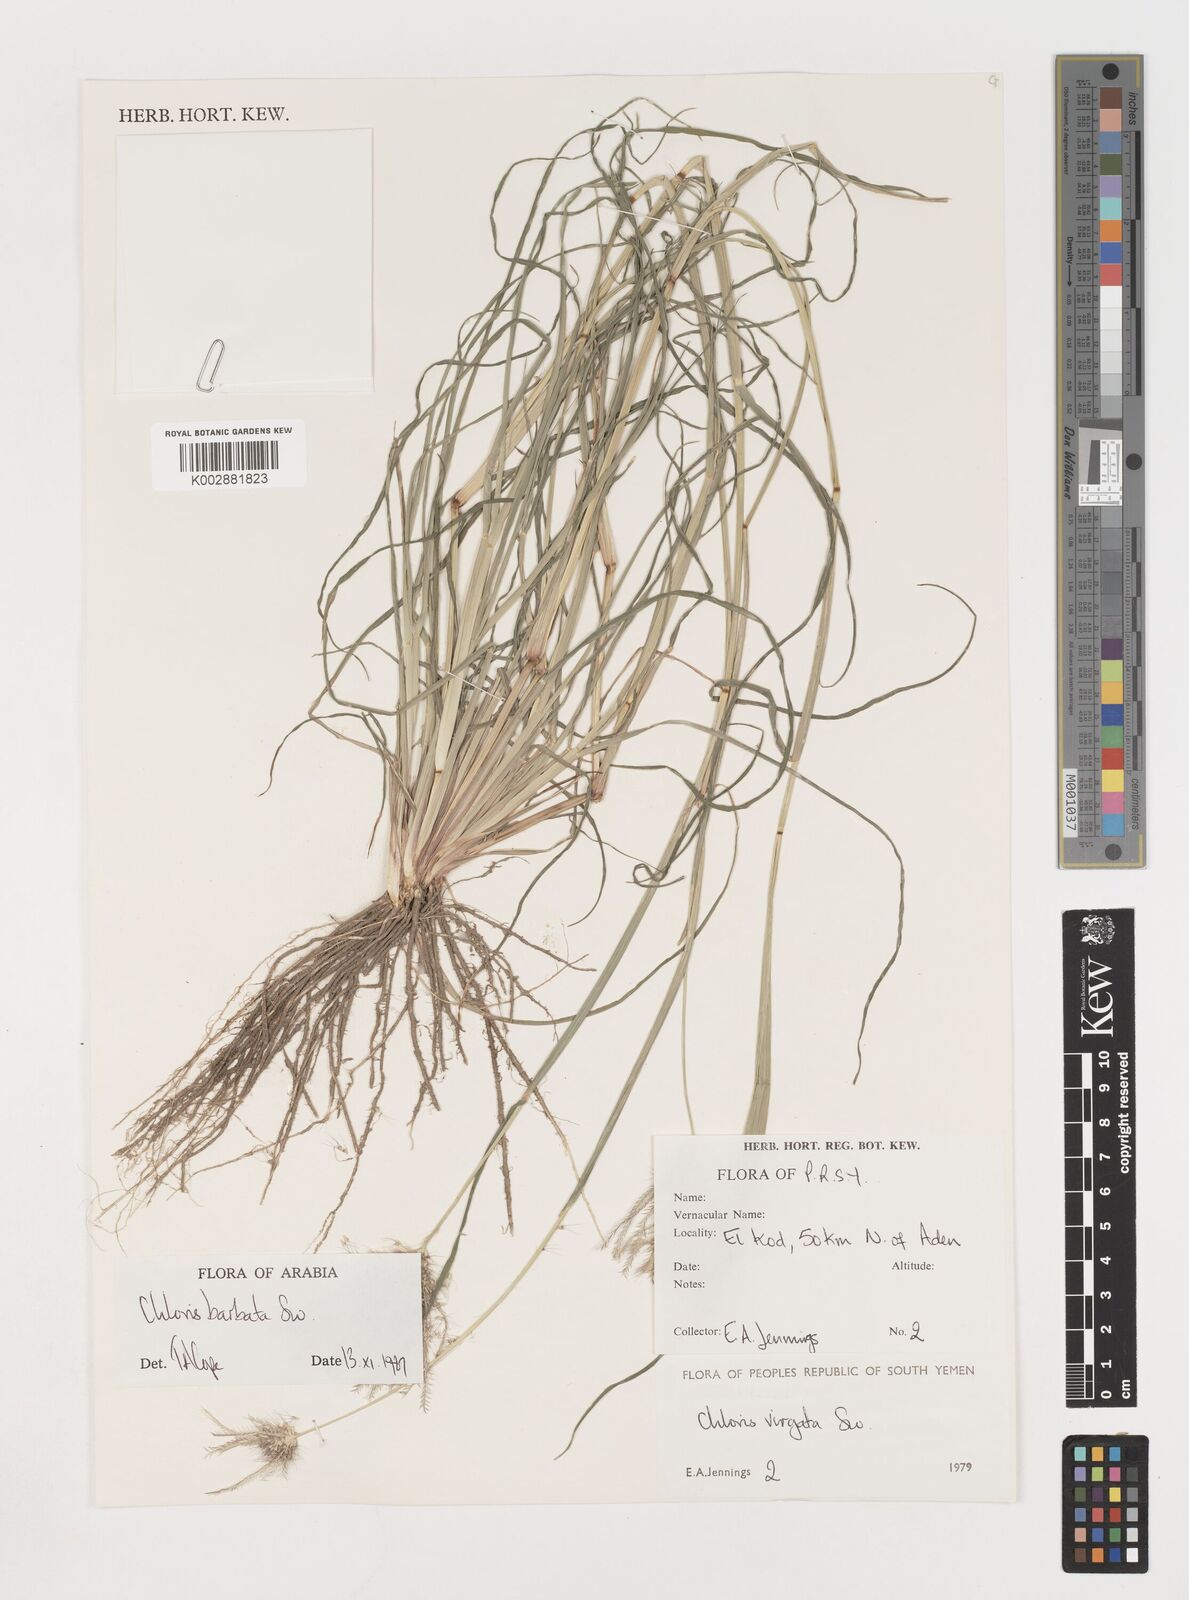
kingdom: Plantae
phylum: Tracheophyta
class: Liliopsida
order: Poales
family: Poaceae
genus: Chloris
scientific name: Chloris
